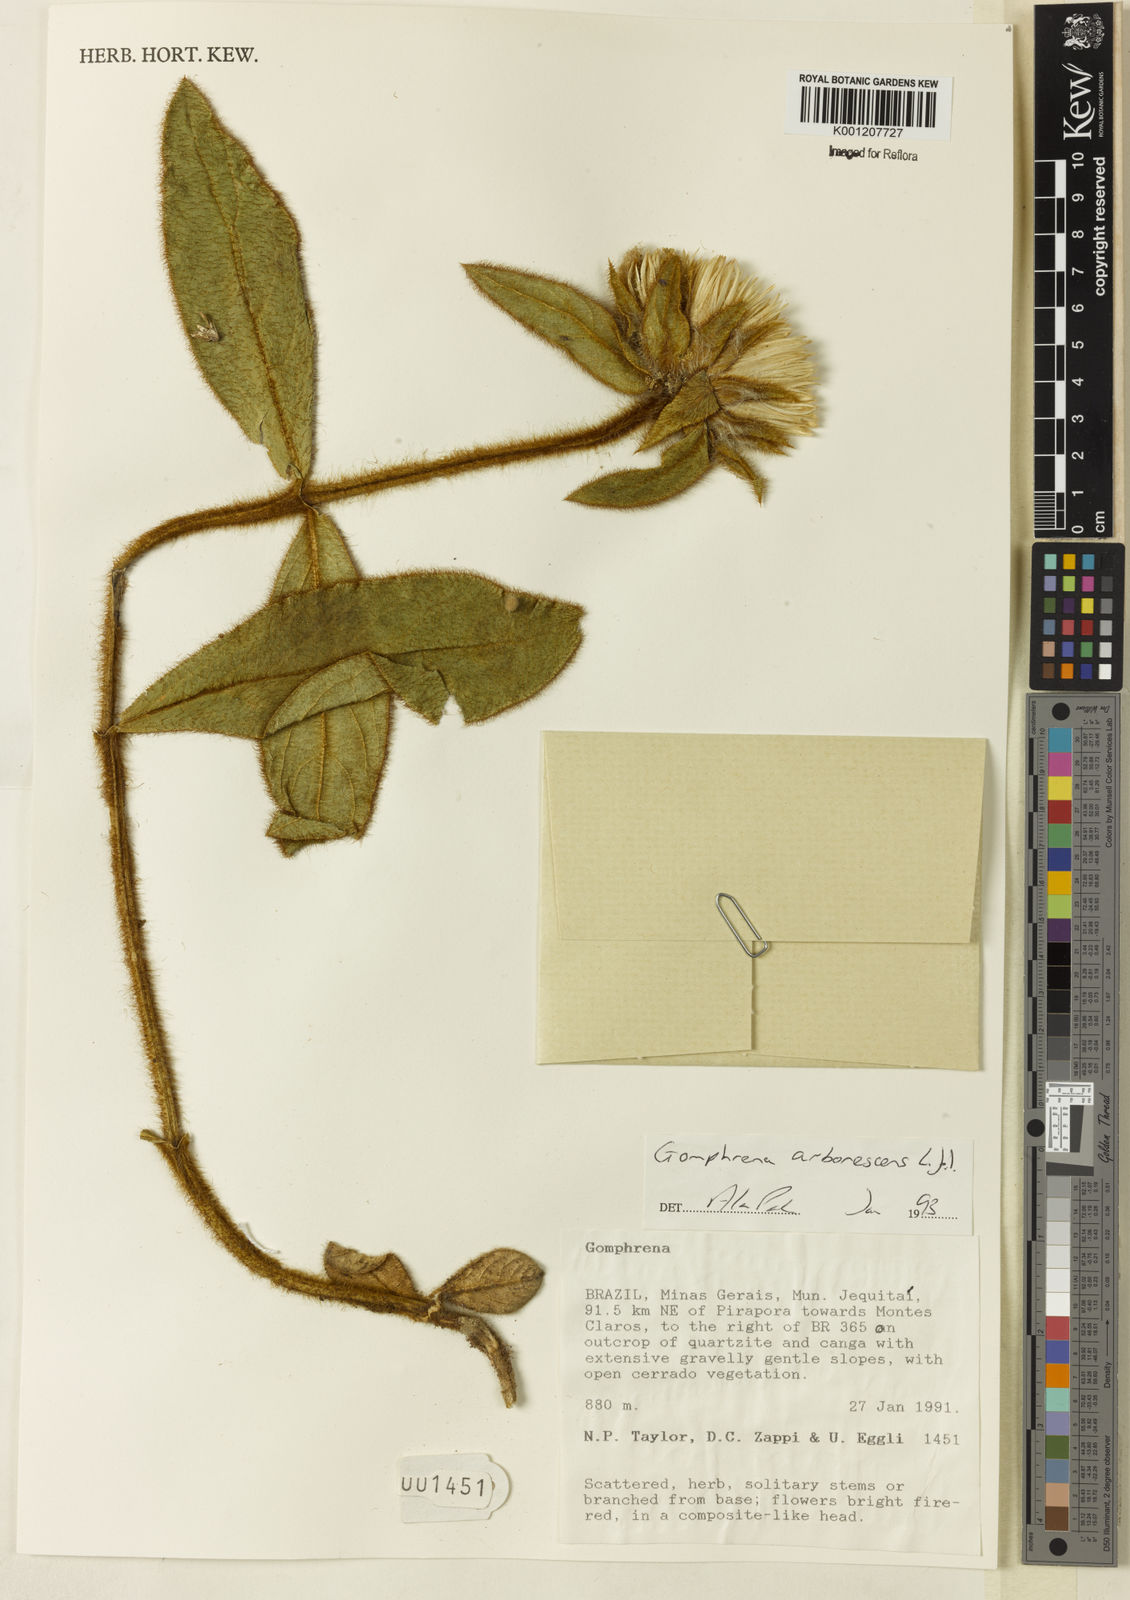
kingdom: Plantae
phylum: Tracheophyta
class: Magnoliopsida
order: Caryophyllales
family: Amaranthaceae
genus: Gomphrena
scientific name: Gomphrena arborescens
